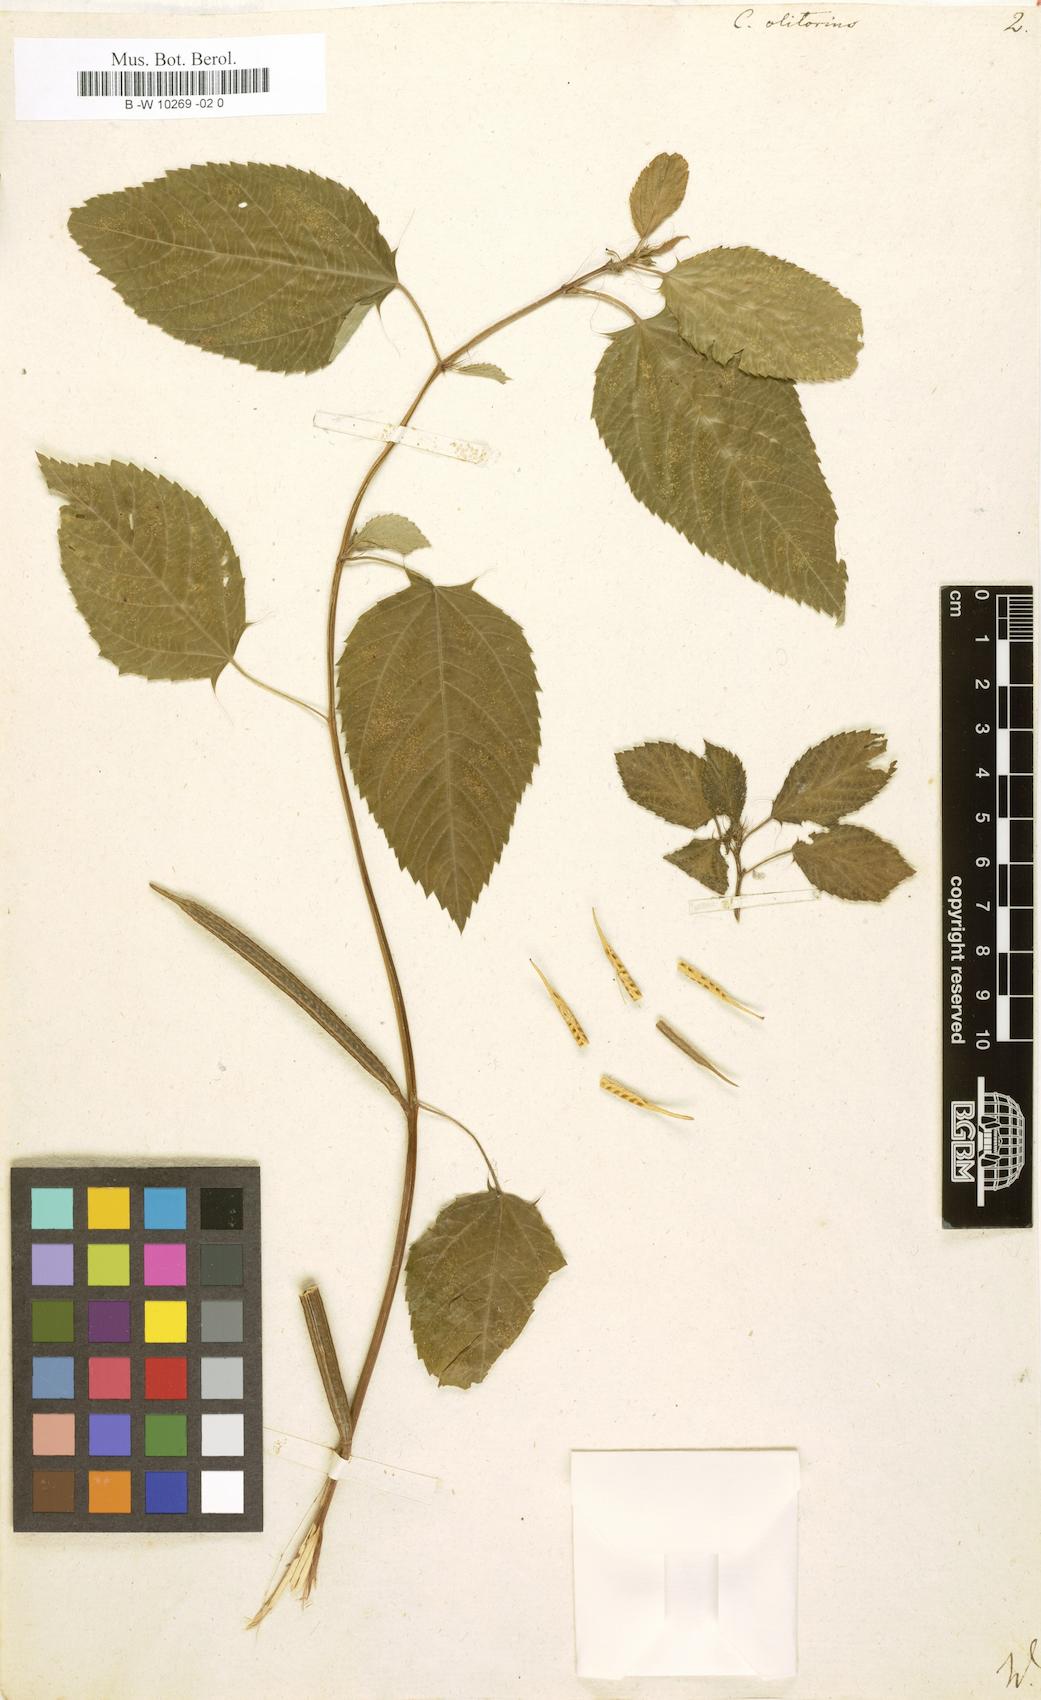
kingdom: Plantae
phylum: Tracheophyta
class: Magnoliopsida
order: Malvales
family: Malvaceae
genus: Corchorus
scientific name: Corchorus olitorius
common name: Tossa jute
